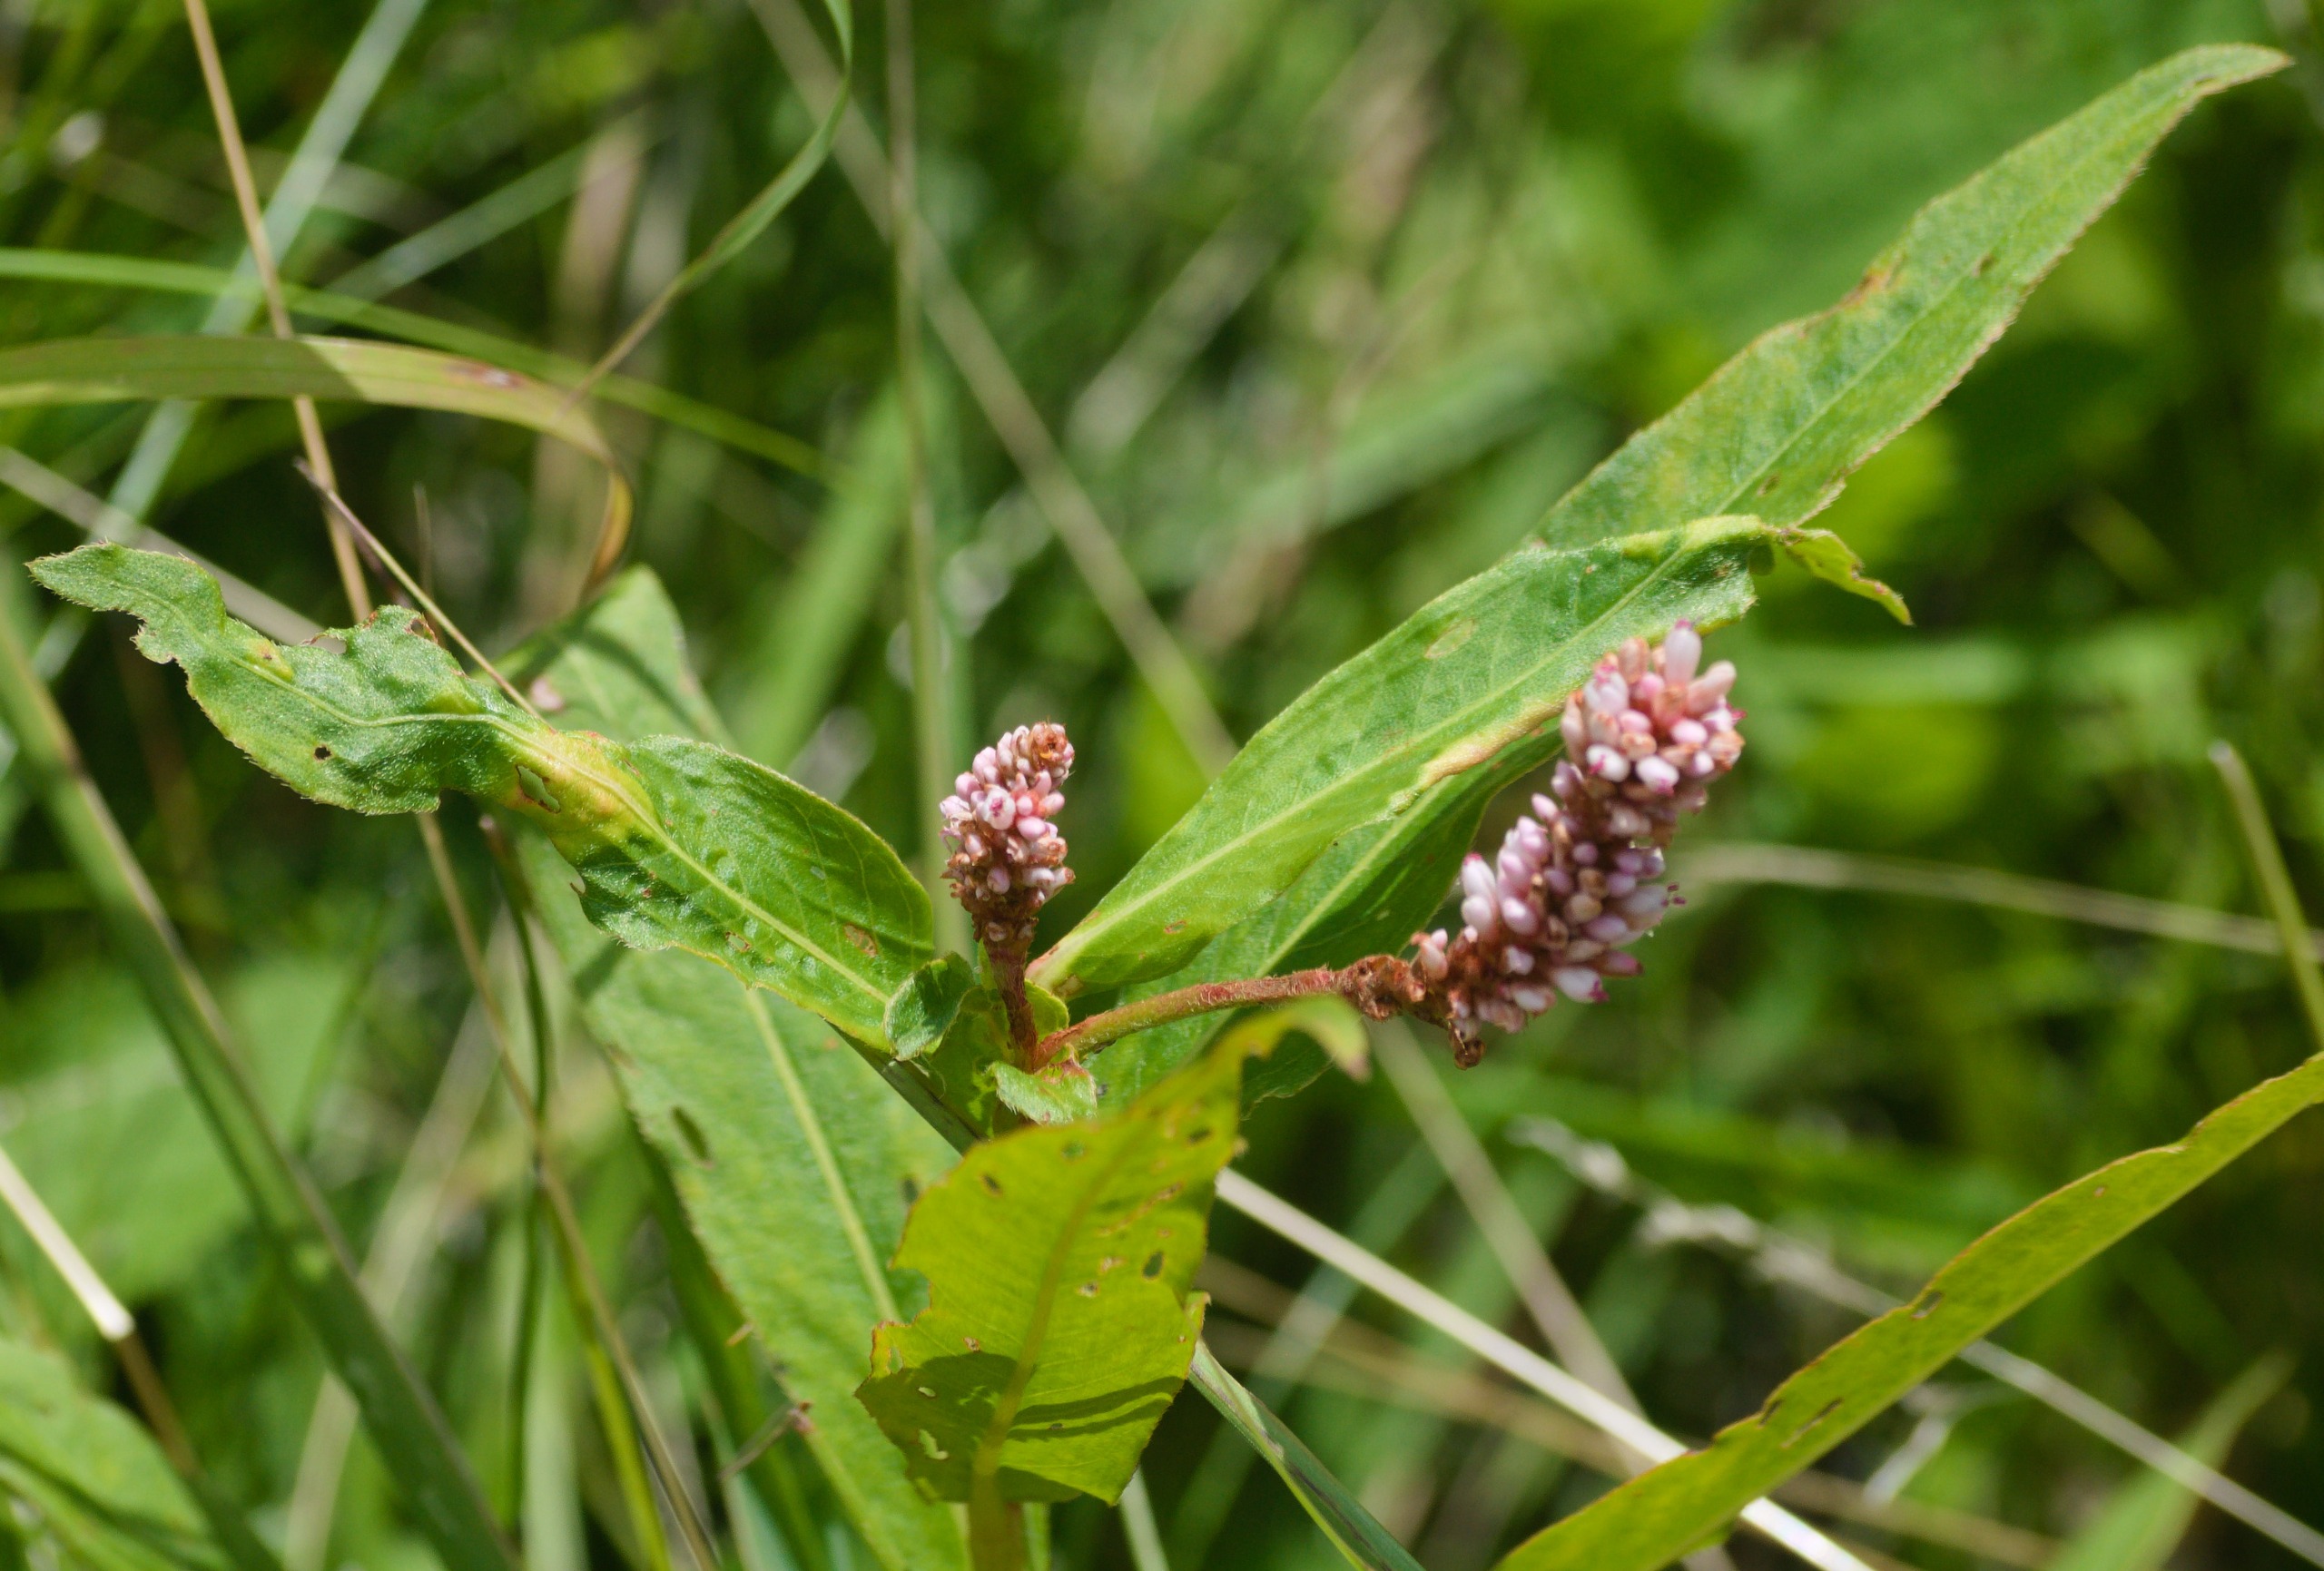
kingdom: Plantae
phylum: Tracheophyta
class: Magnoliopsida
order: Caryophyllales
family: Polygonaceae
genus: Persicaria
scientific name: Persicaria amphibia
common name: Vand-pileurt
